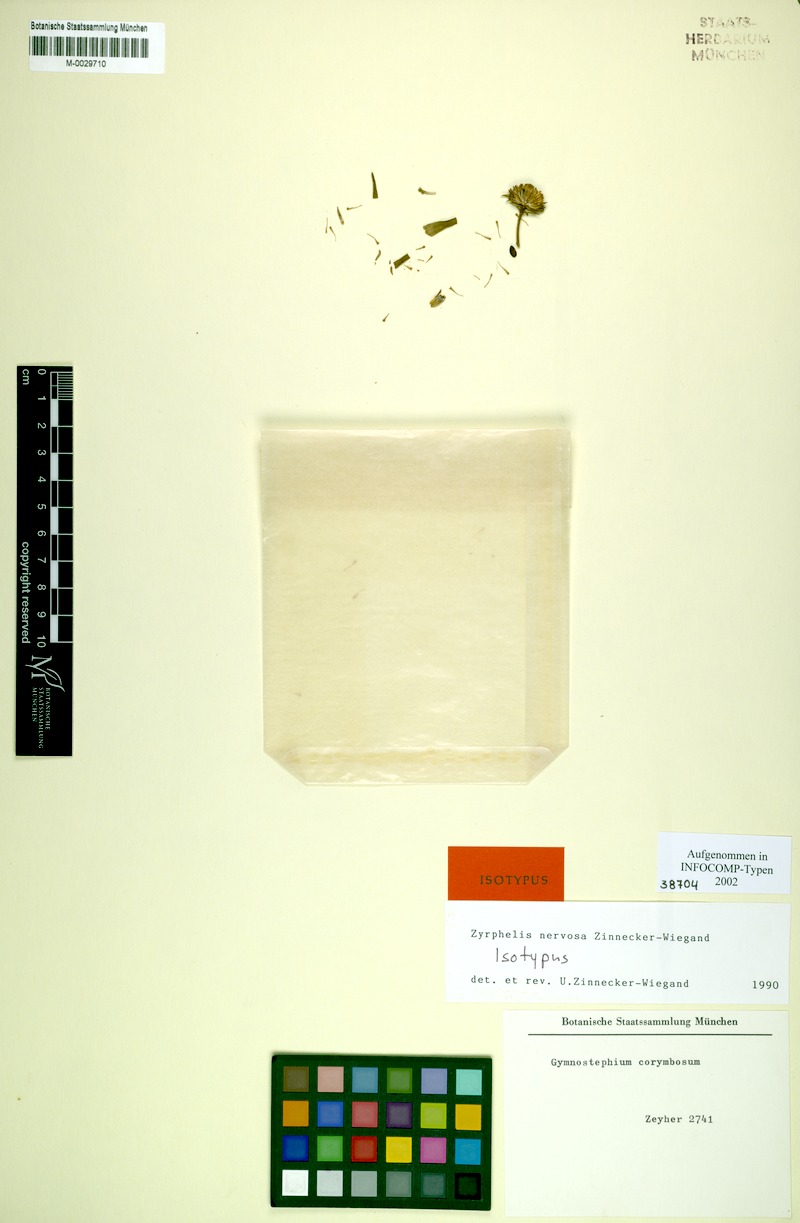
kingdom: Plantae
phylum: Tracheophyta
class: Magnoliopsida
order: Asterales
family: Asteraceae
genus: Zyrphelis
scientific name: Zyrphelis nervosa
